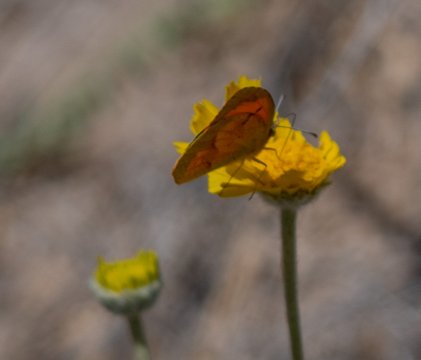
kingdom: Animalia
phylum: Arthropoda
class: Insecta
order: Lepidoptera
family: Pieridae
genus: Abaeis
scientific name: Abaeis nicippe
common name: Sleepy Orange
